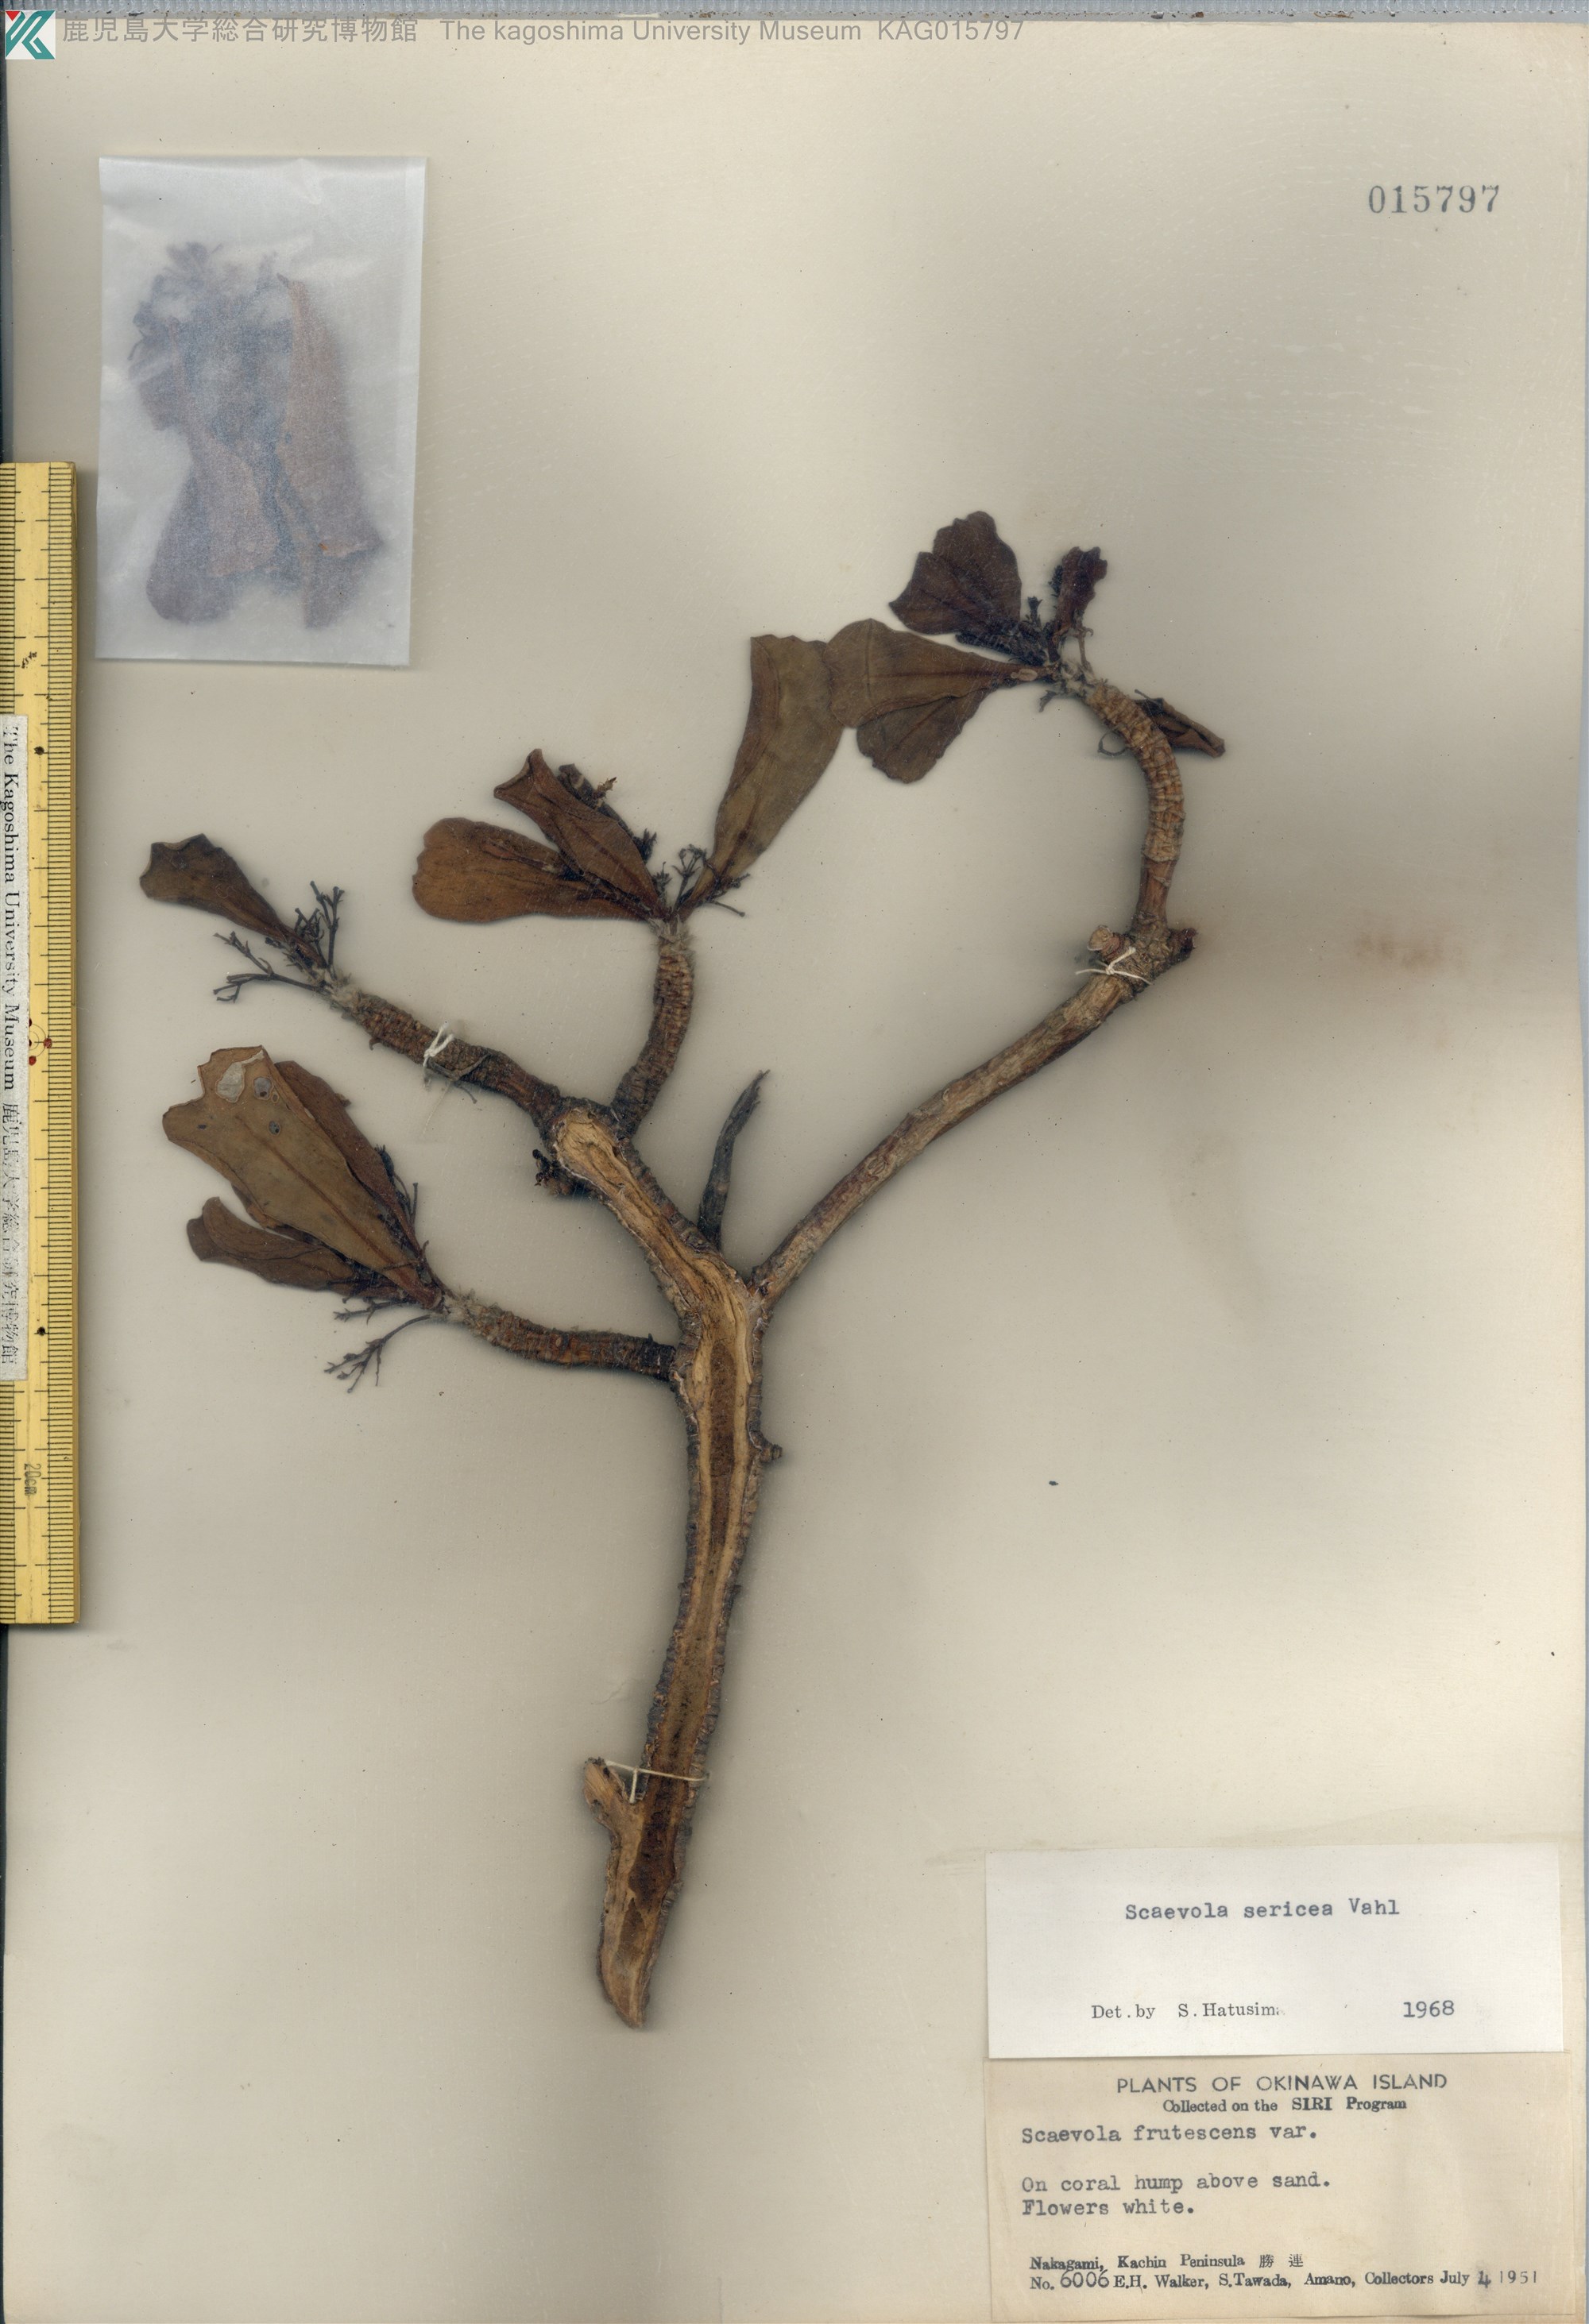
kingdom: Plantae
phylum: Tracheophyta
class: Magnoliopsida
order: Asterales
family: Goodeniaceae
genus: Scaevola
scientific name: Scaevola taccada
